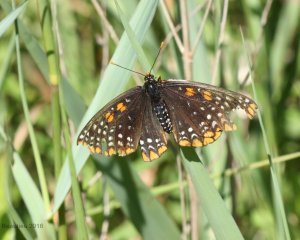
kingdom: Animalia
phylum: Arthropoda
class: Insecta
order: Lepidoptera
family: Nymphalidae
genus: Euphydryas
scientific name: Euphydryas phaeton
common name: Baltimore Checkerspot
